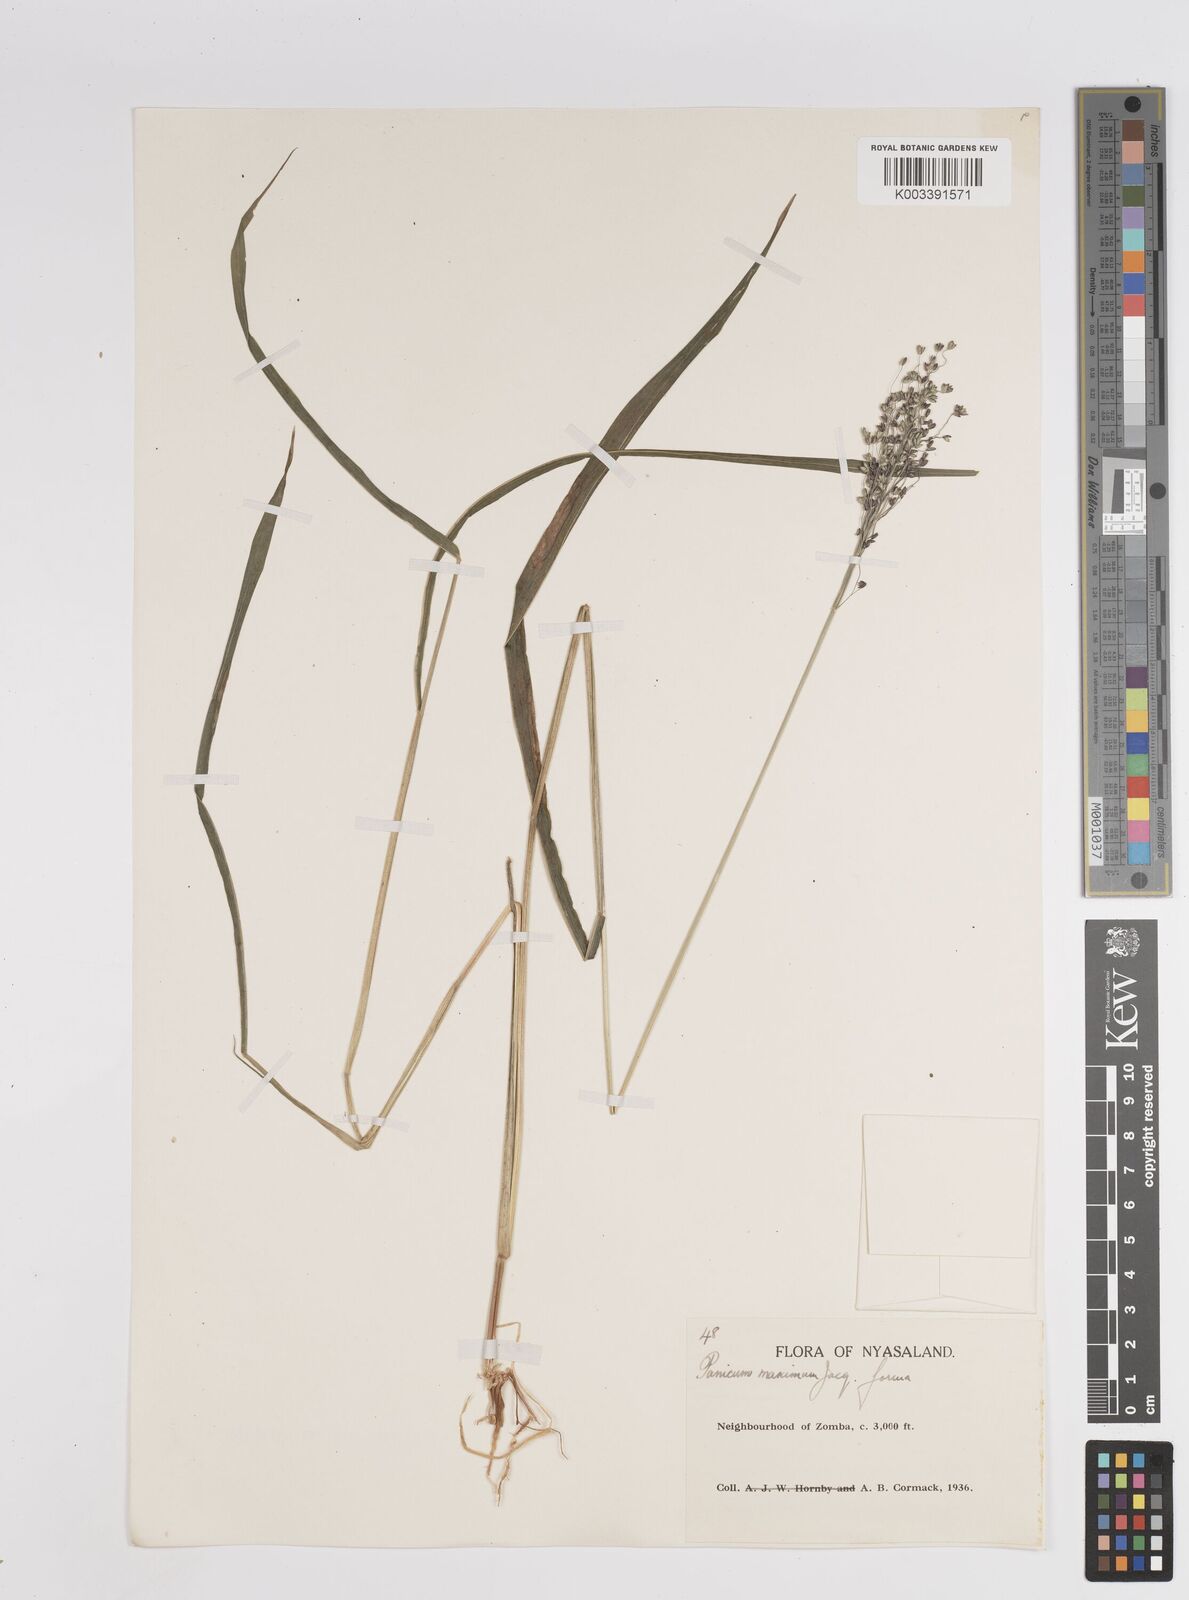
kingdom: Plantae
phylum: Tracheophyta
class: Liliopsida
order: Poales
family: Poaceae
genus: Megathyrsus
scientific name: Megathyrsus maximus
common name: Guineagrass
